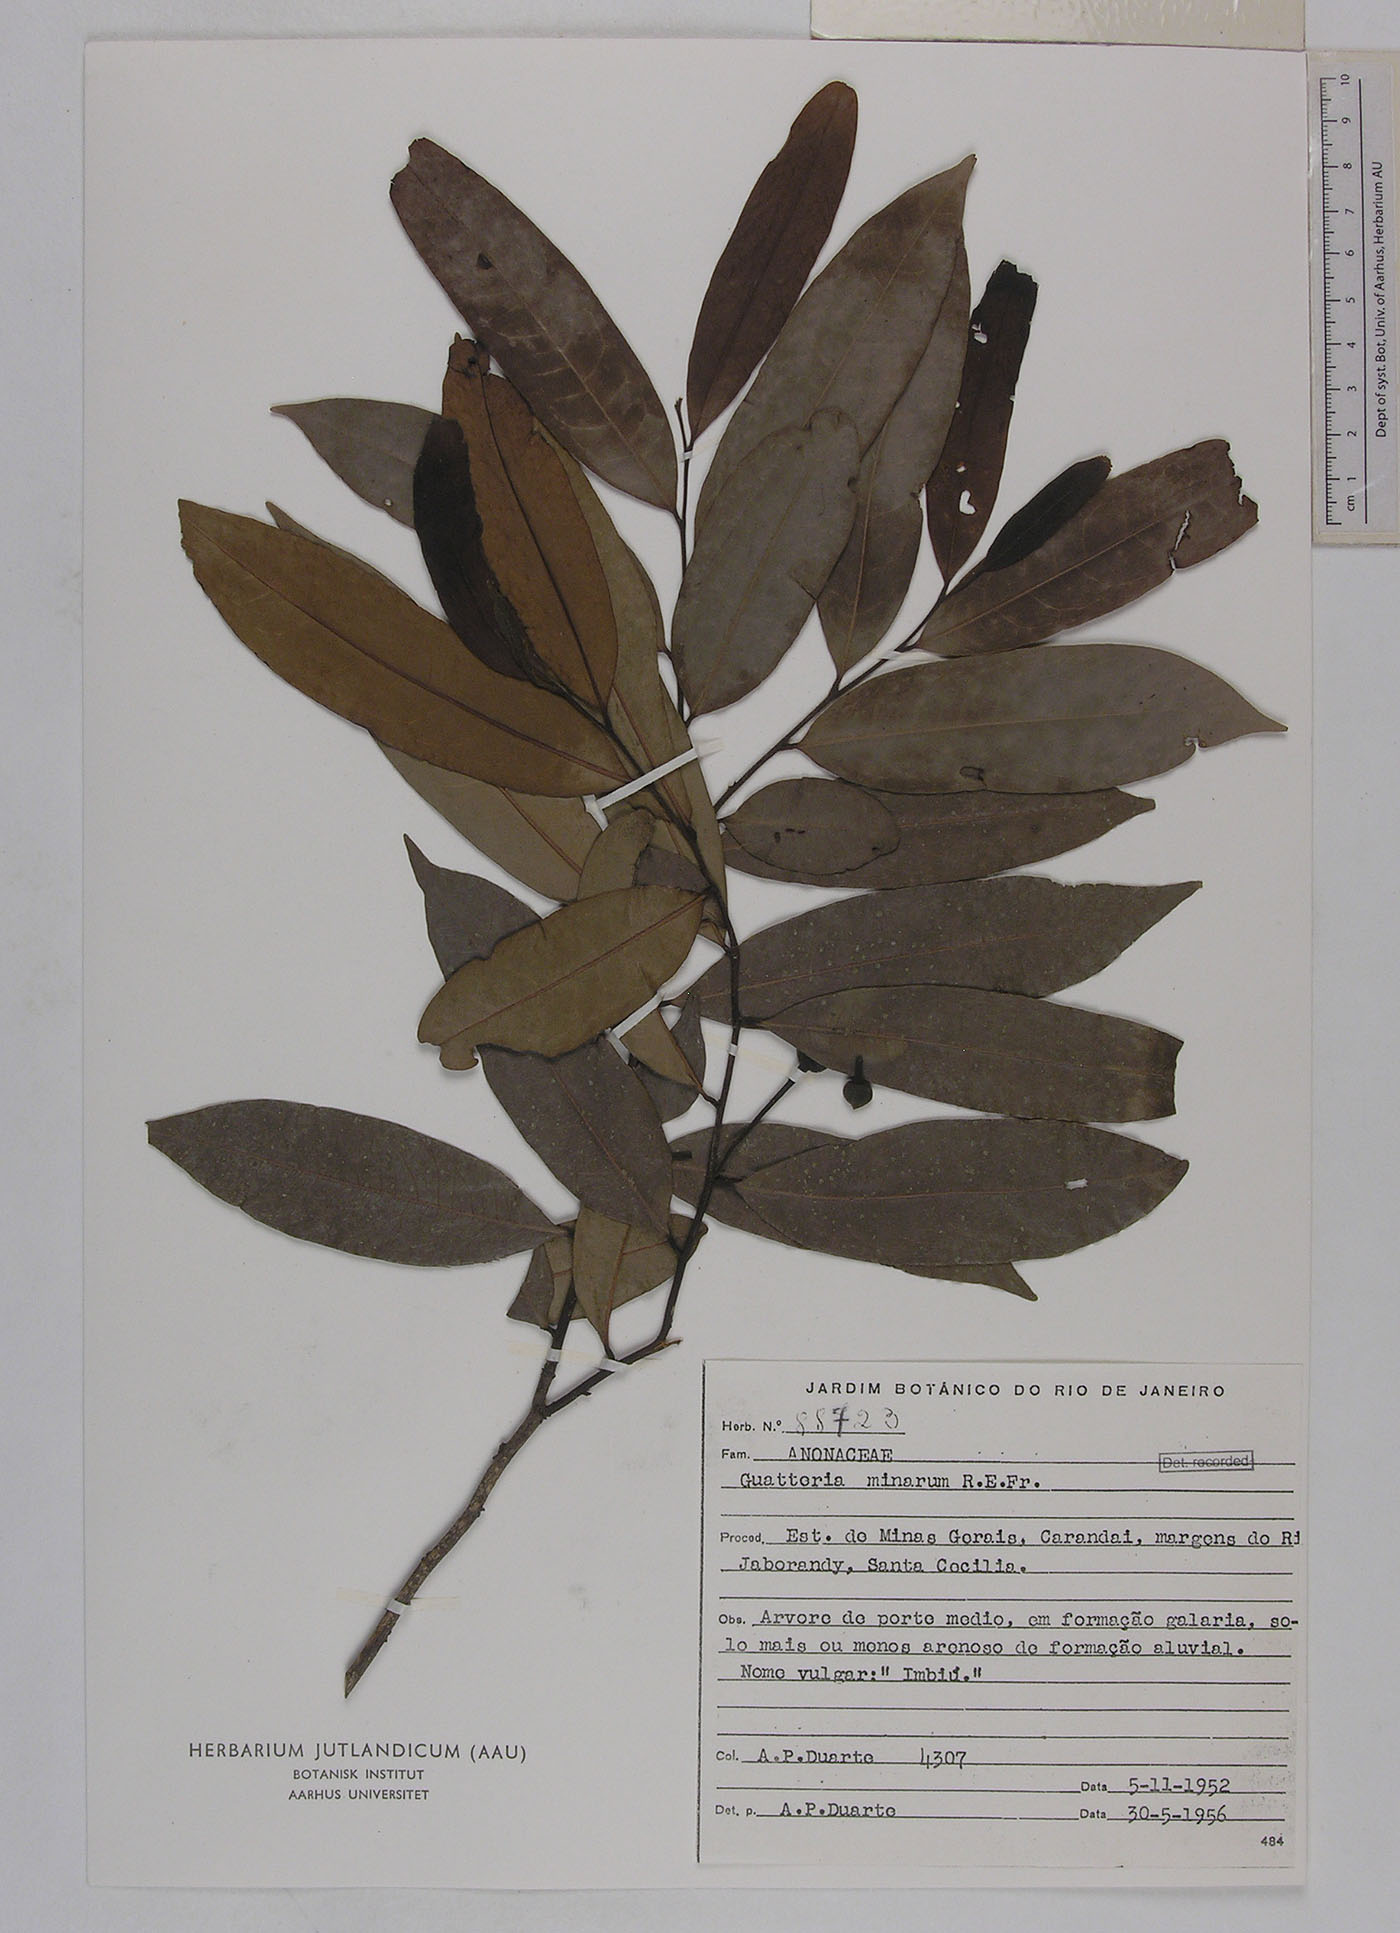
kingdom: Plantae
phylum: Tracheophyta
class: Magnoliopsida
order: Magnoliales
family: Annonaceae
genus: Guatteria
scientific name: Guatteria australis
